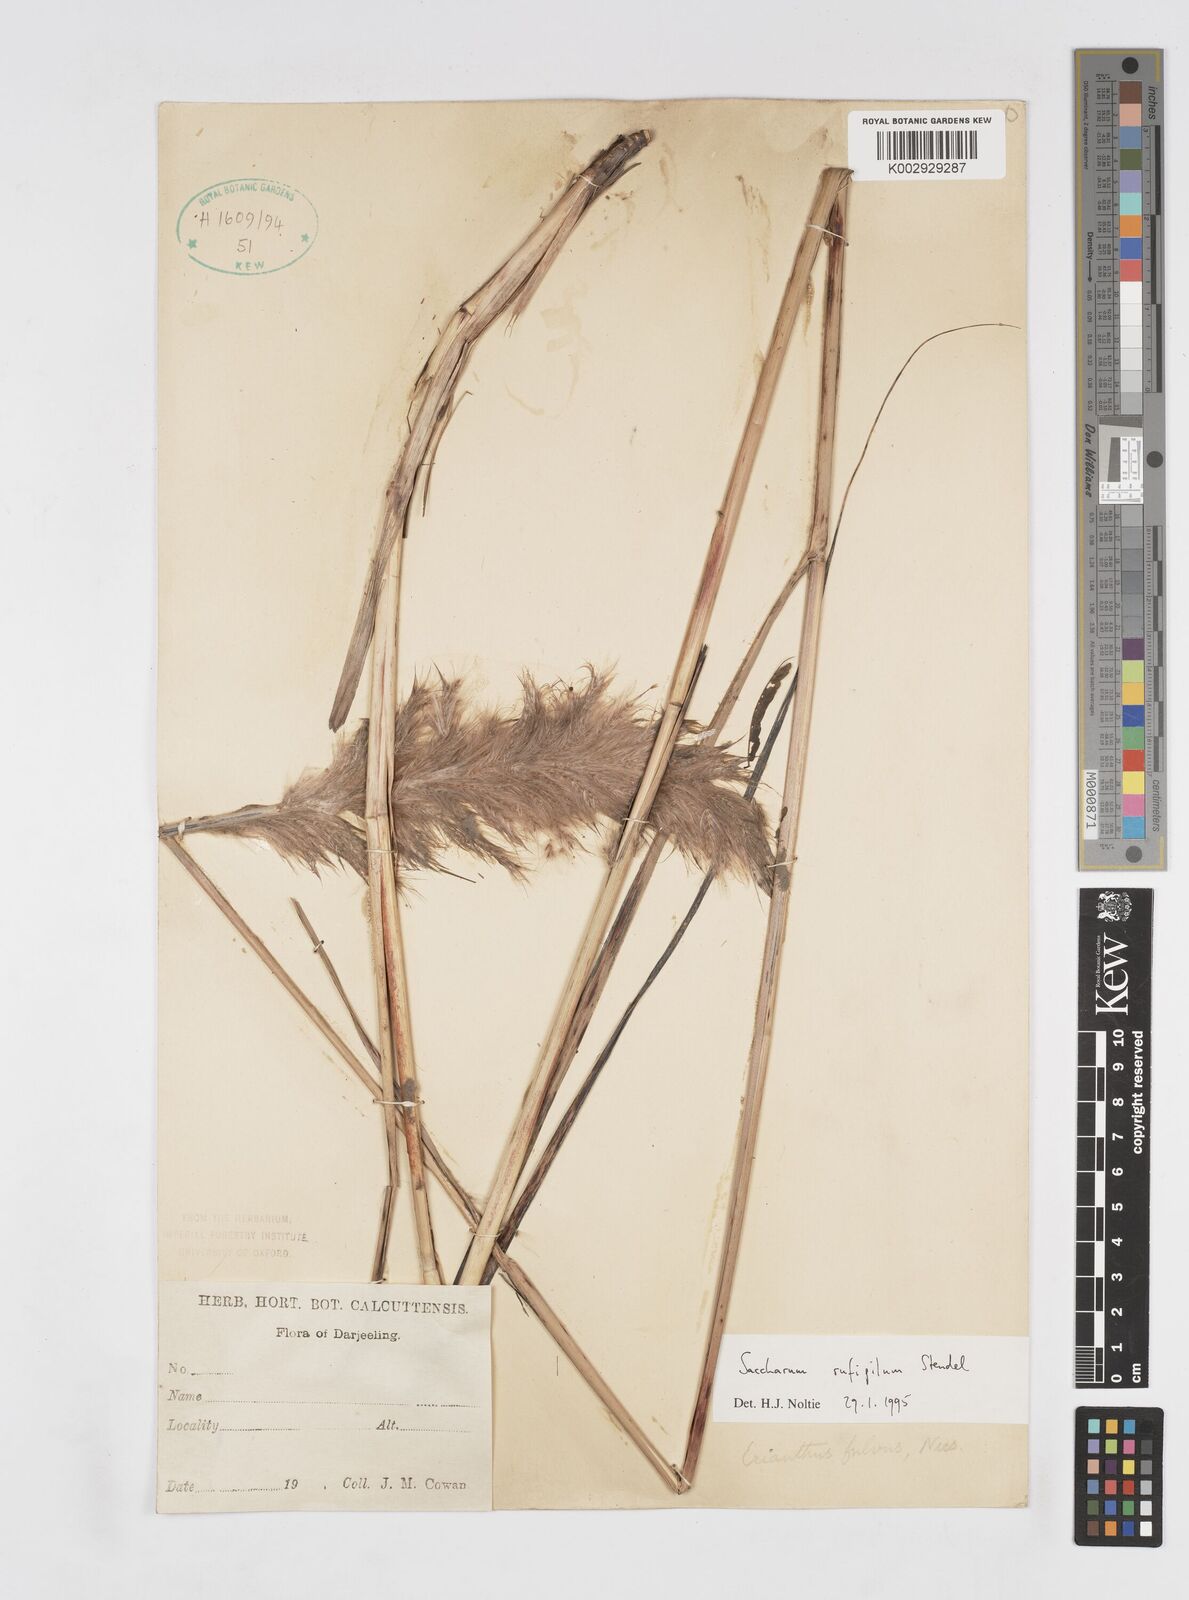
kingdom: Plantae
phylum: Tracheophyta
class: Liliopsida
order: Poales
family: Poaceae
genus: Tripidium
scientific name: Tripidium rufipilum
